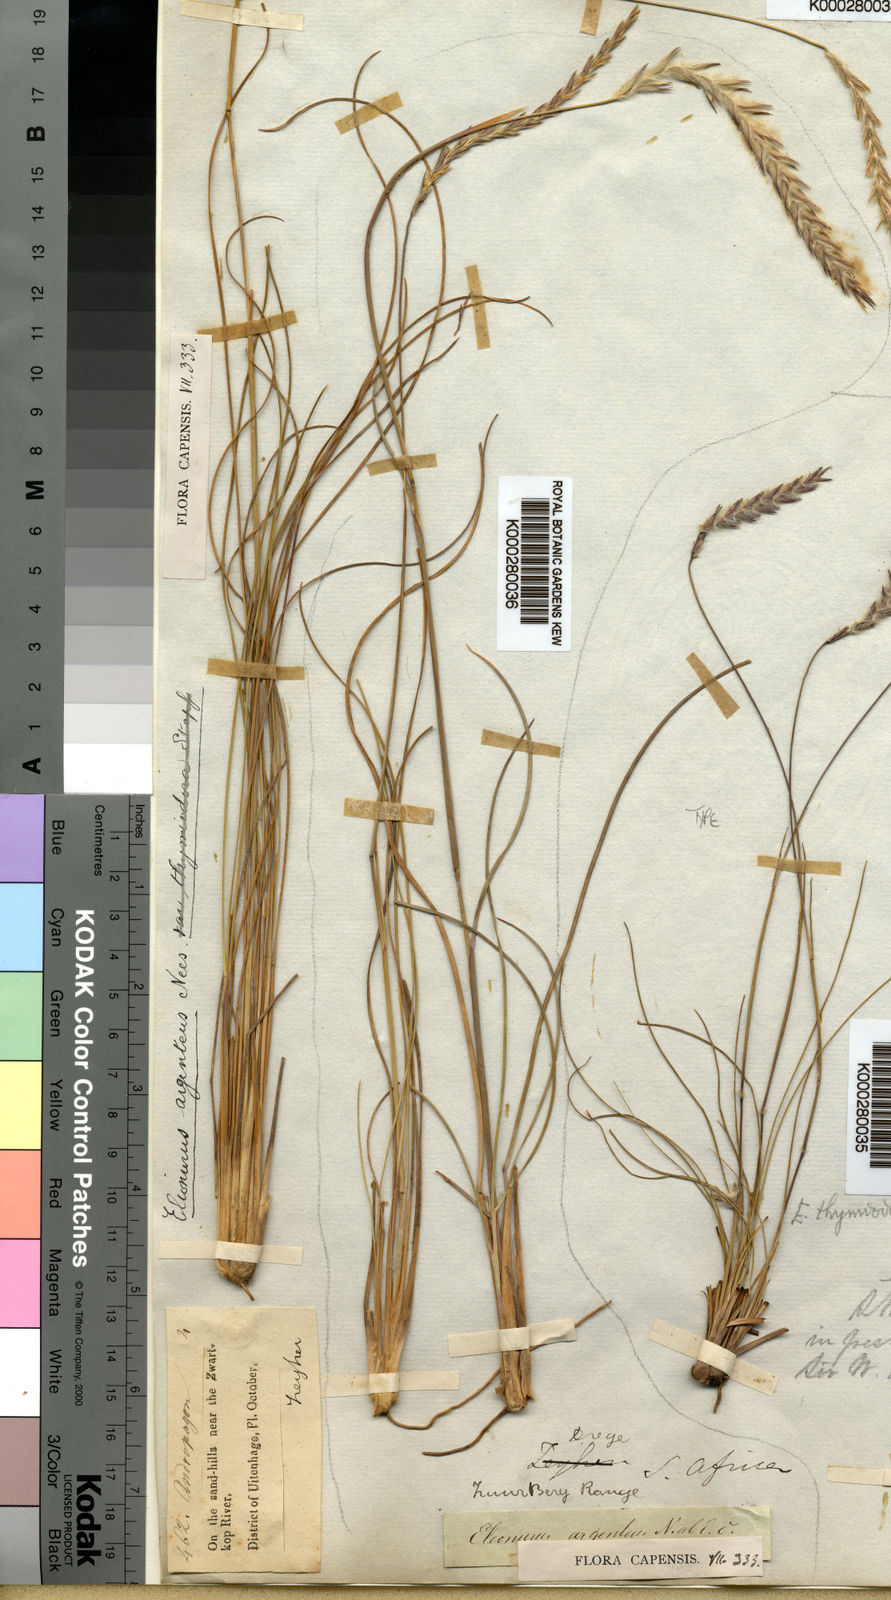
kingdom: Plantae
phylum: Tracheophyta
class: Liliopsida
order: Poales
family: Poaceae
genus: Elionurus
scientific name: Elionurus muticus
